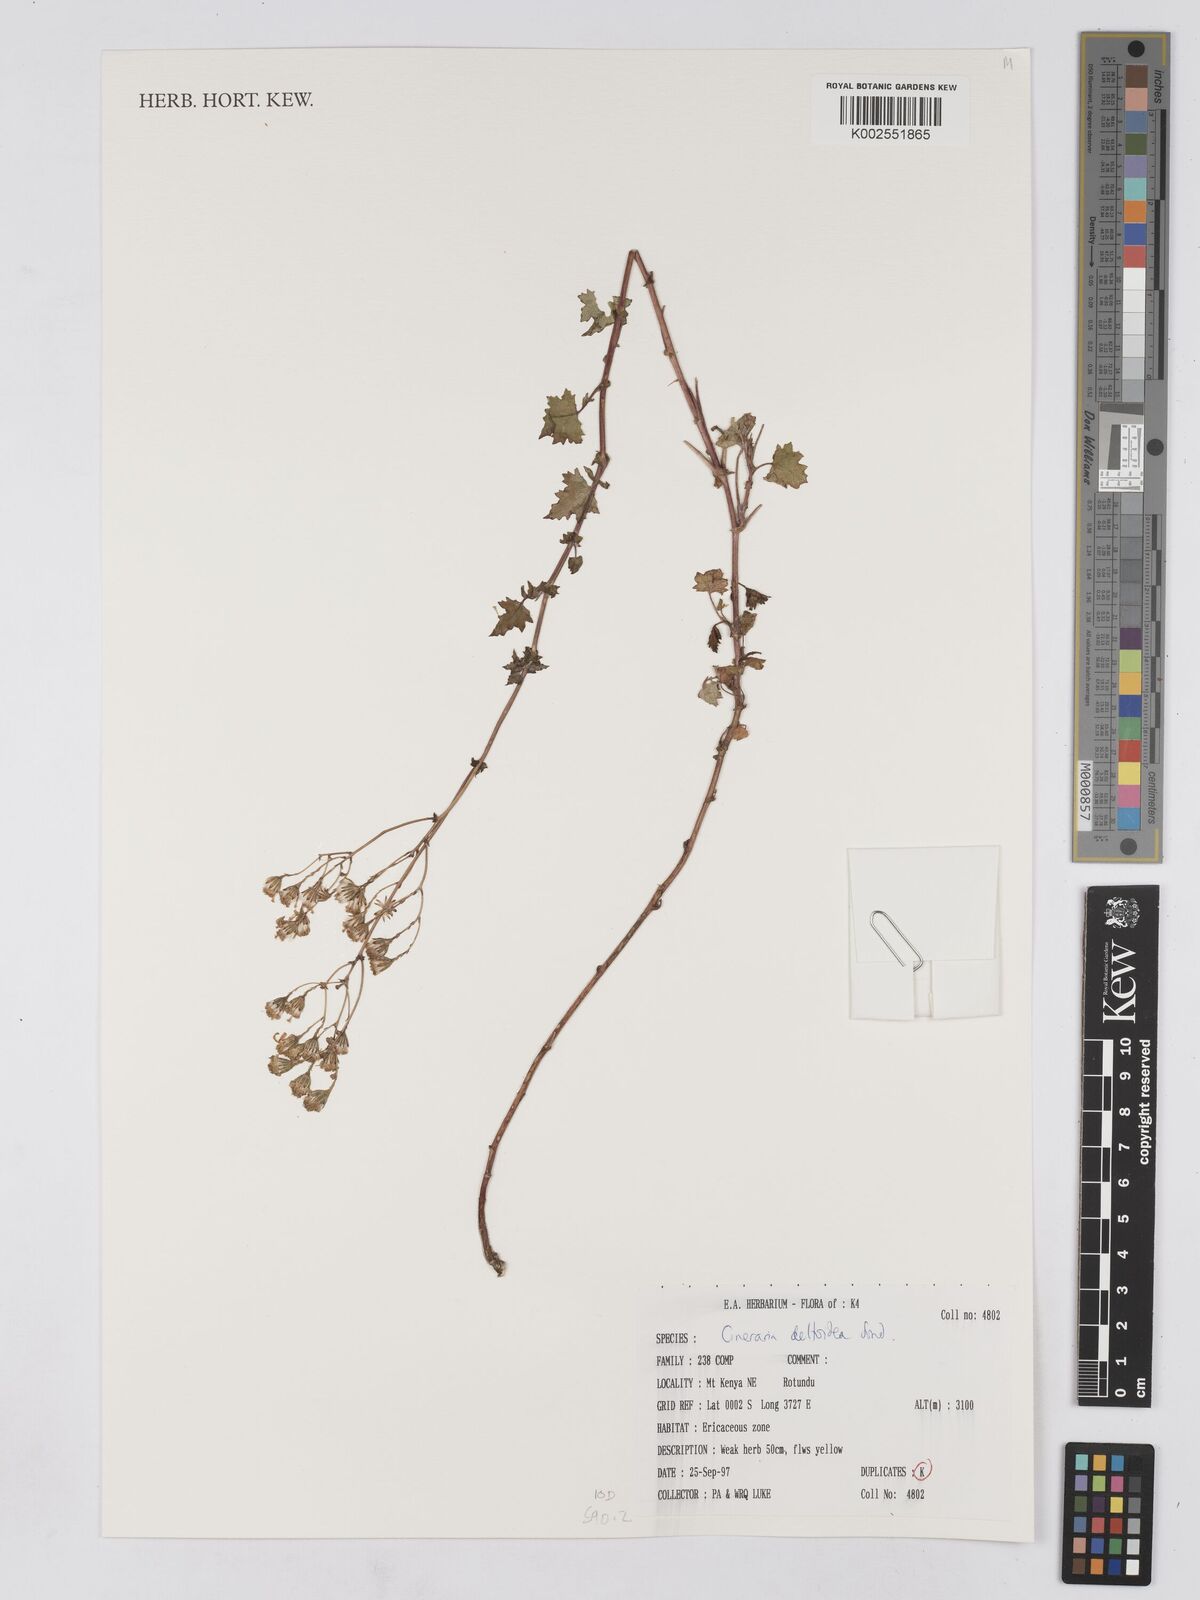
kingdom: Plantae
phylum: Tracheophyta
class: Magnoliopsida
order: Asterales
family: Asteraceae
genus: Cineraria
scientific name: Cineraria deltoidea
